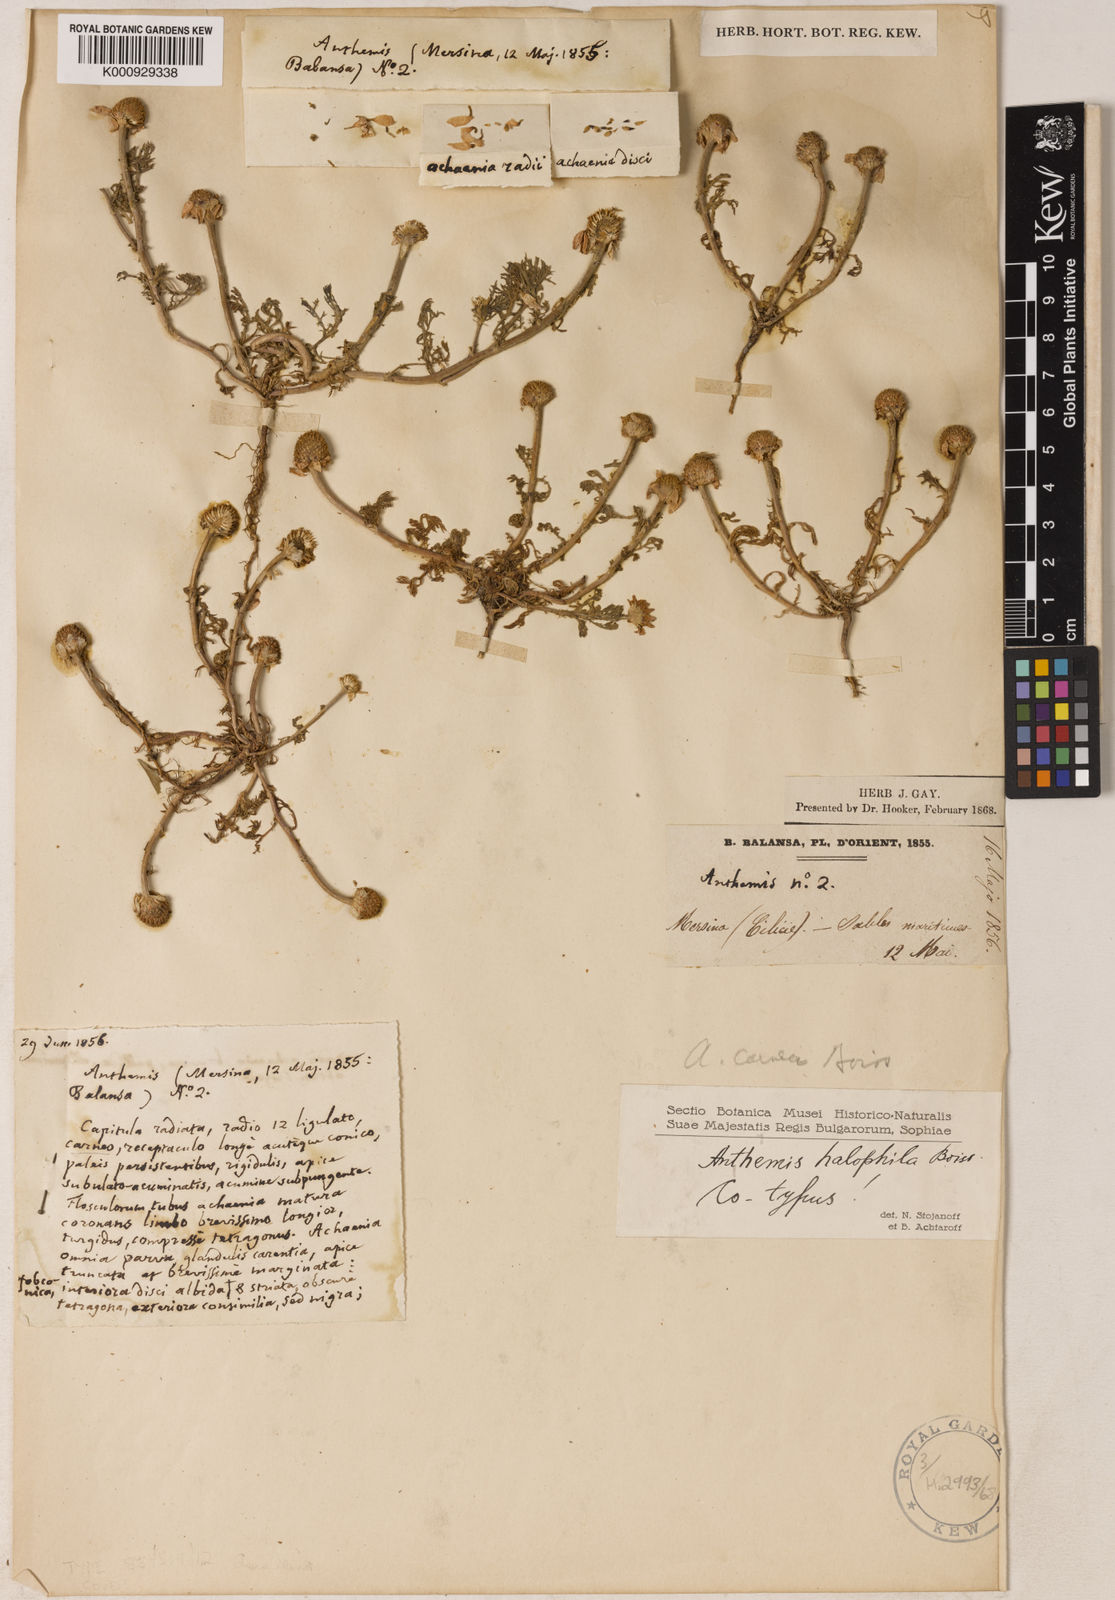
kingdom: Plantae
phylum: Tracheophyta
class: Magnoliopsida
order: Asterales
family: Asteraceae
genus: Cota
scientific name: Cota halophila
